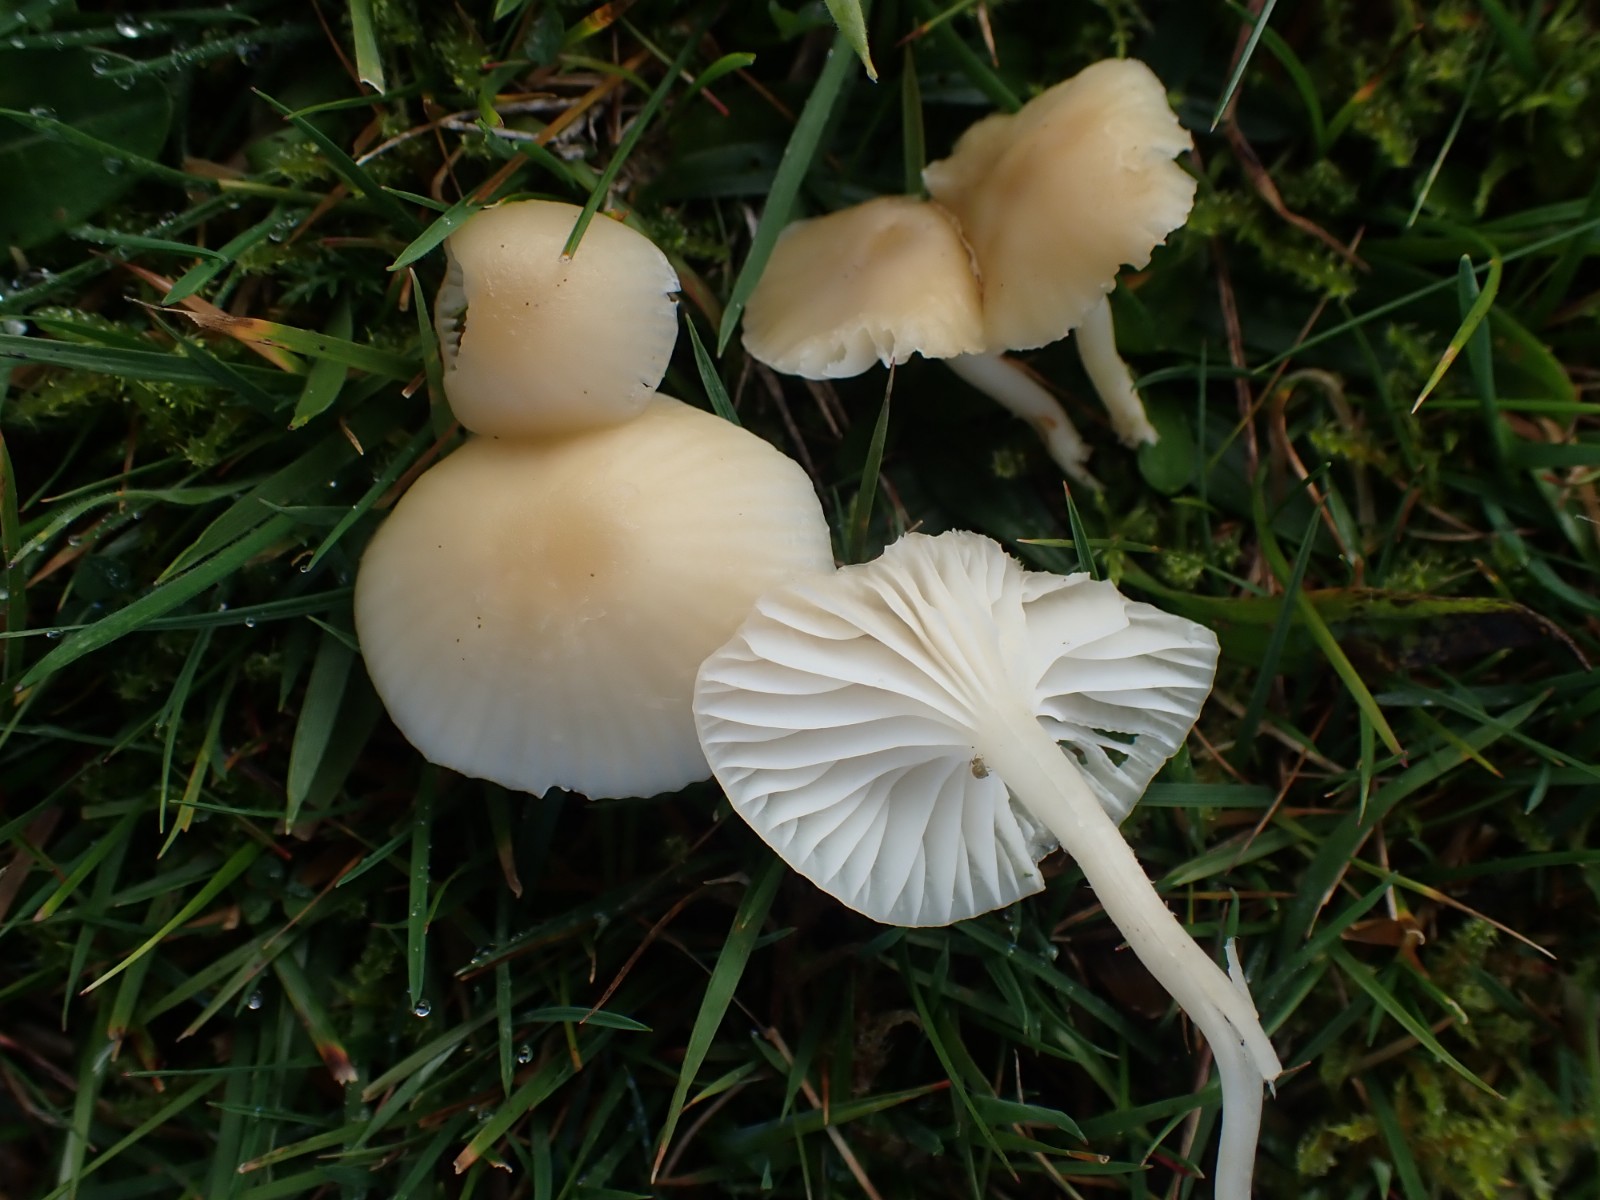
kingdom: Fungi
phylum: Basidiomycota
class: Agaricomycetes
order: Agaricales
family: Hygrophoraceae
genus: Cuphophyllus
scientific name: Cuphophyllus russocoriaceus
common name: ruslæder-vokshat
